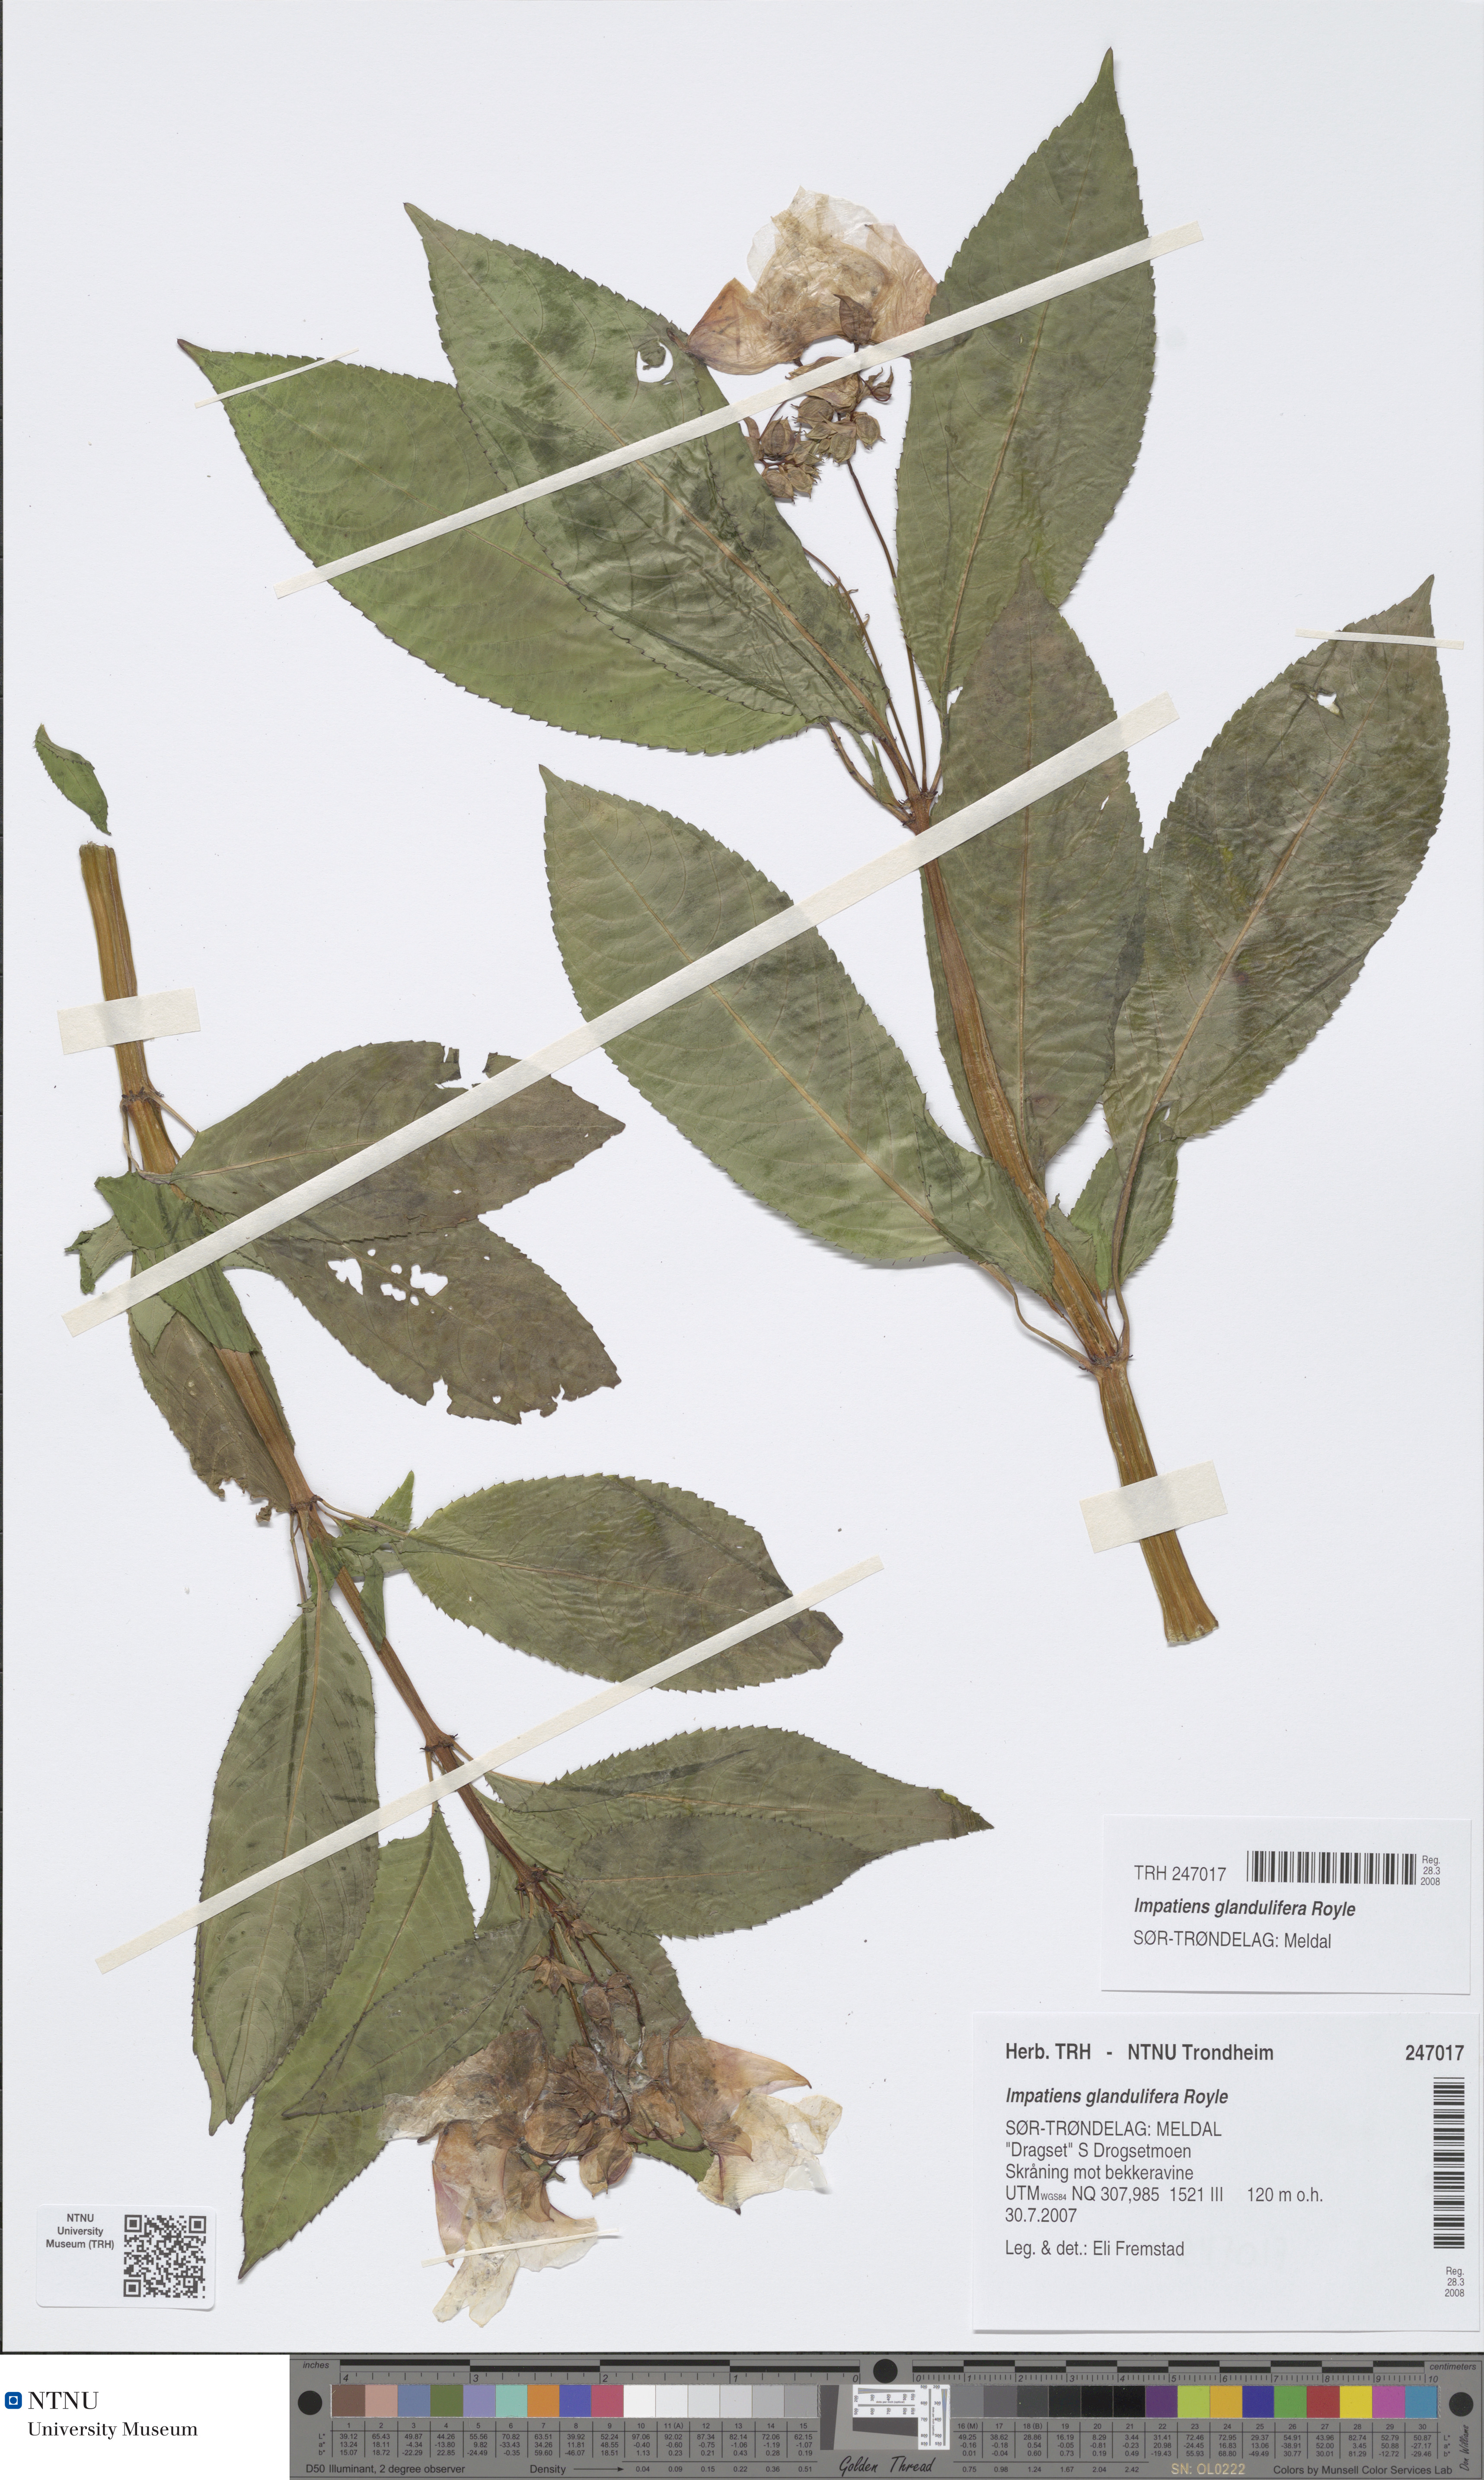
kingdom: Plantae
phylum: Tracheophyta
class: Magnoliopsida
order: Ericales
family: Balsaminaceae
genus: Impatiens
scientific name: Impatiens glandulifera
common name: Himalayan balsam
